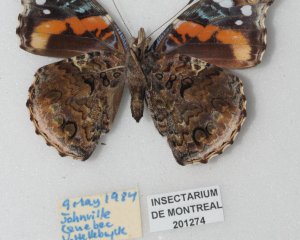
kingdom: Animalia
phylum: Arthropoda
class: Insecta
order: Lepidoptera
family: Nymphalidae
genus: Vanessa
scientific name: Vanessa atalanta
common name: Red Admiral
